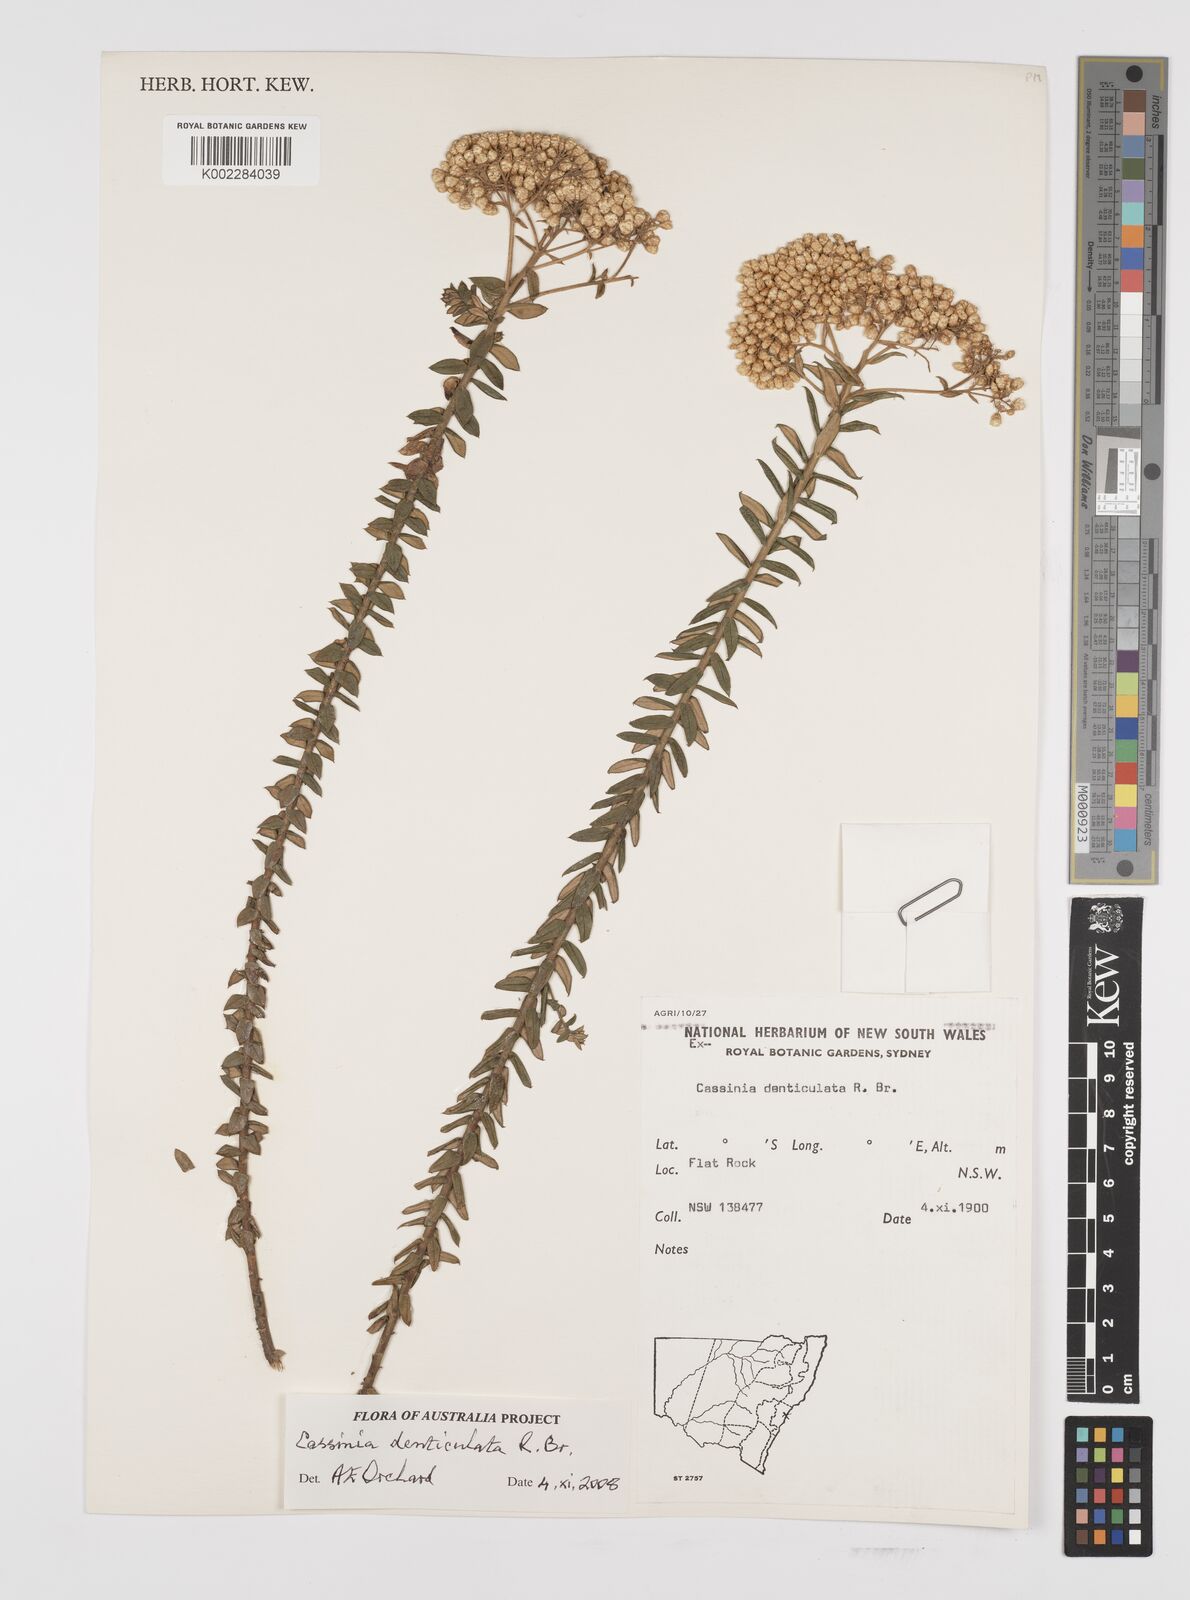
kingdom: Plantae
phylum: Tracheophyta
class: Magnoliopsida
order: Asterales
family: Asteraceae
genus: Cassinia
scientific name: Cassinia denticulata
